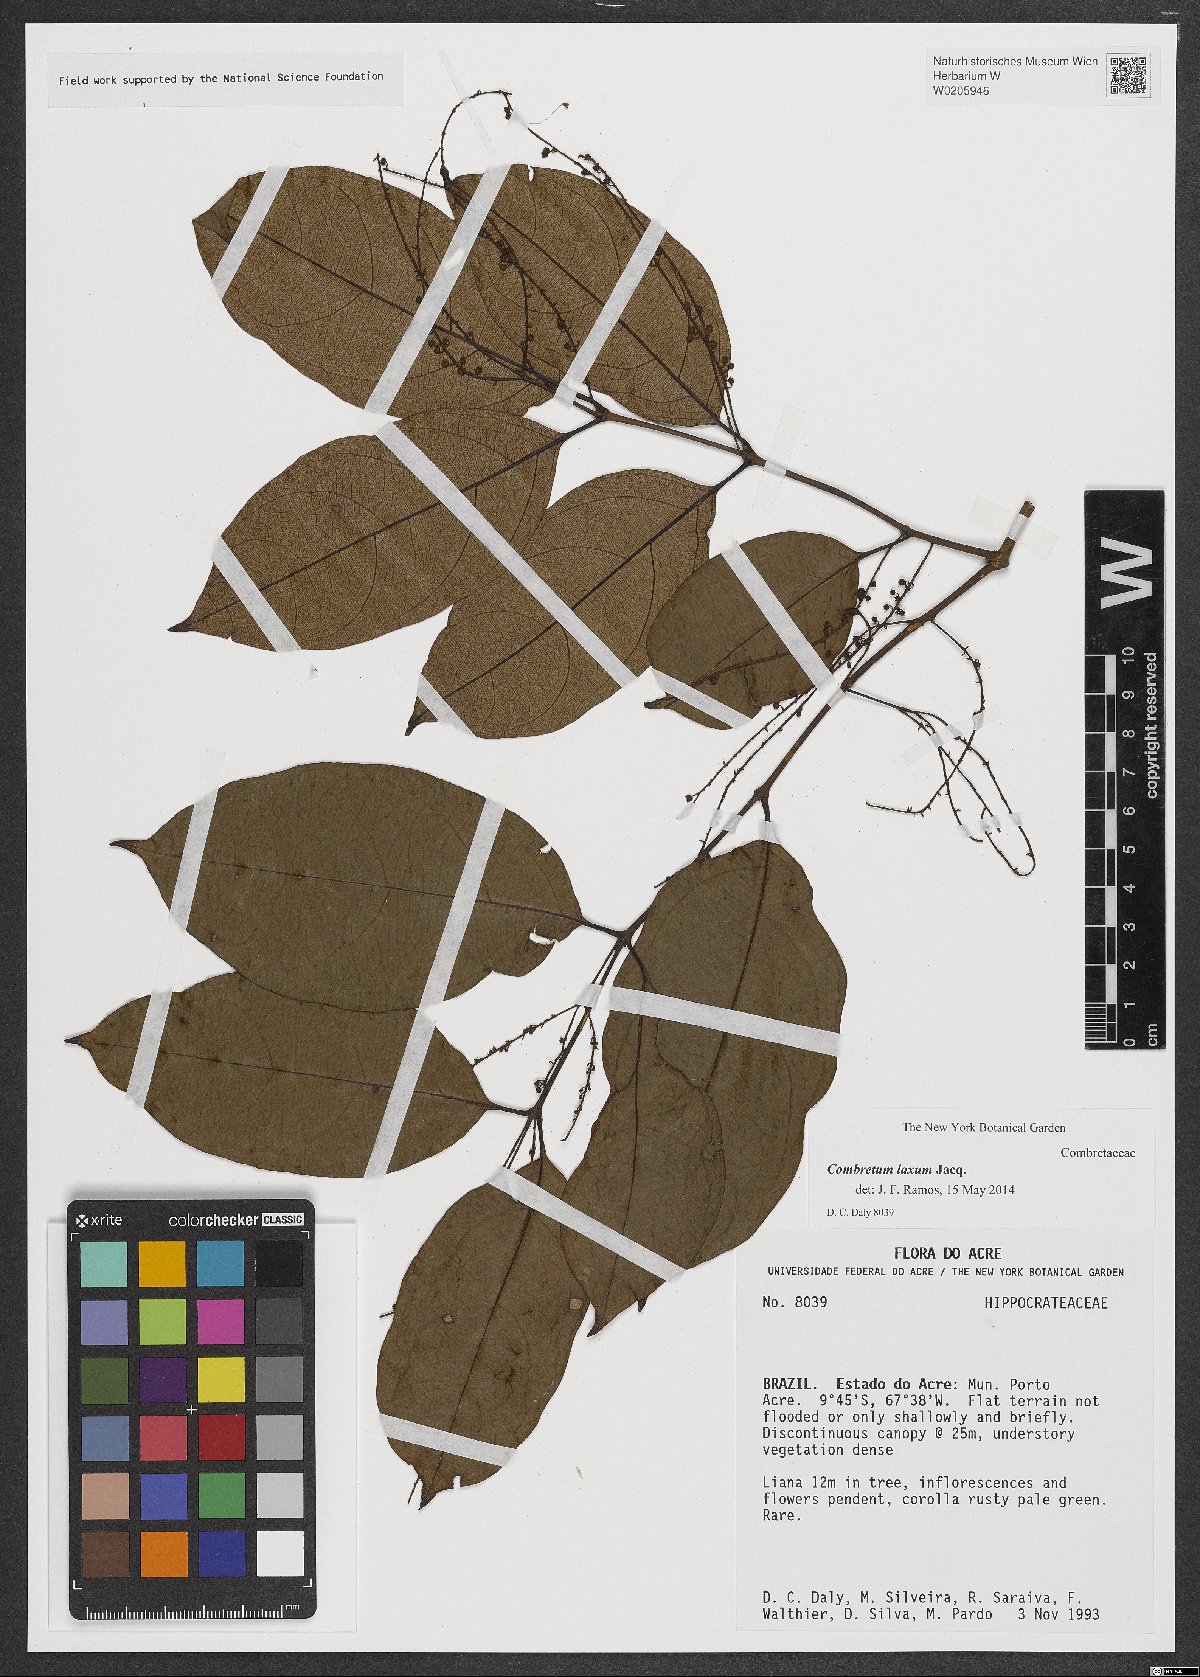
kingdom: Plantae
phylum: Tracheophyta
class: Magnoliopsida
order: Myrtales
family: Combretaceae
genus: Combretum
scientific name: Combretum laxum
